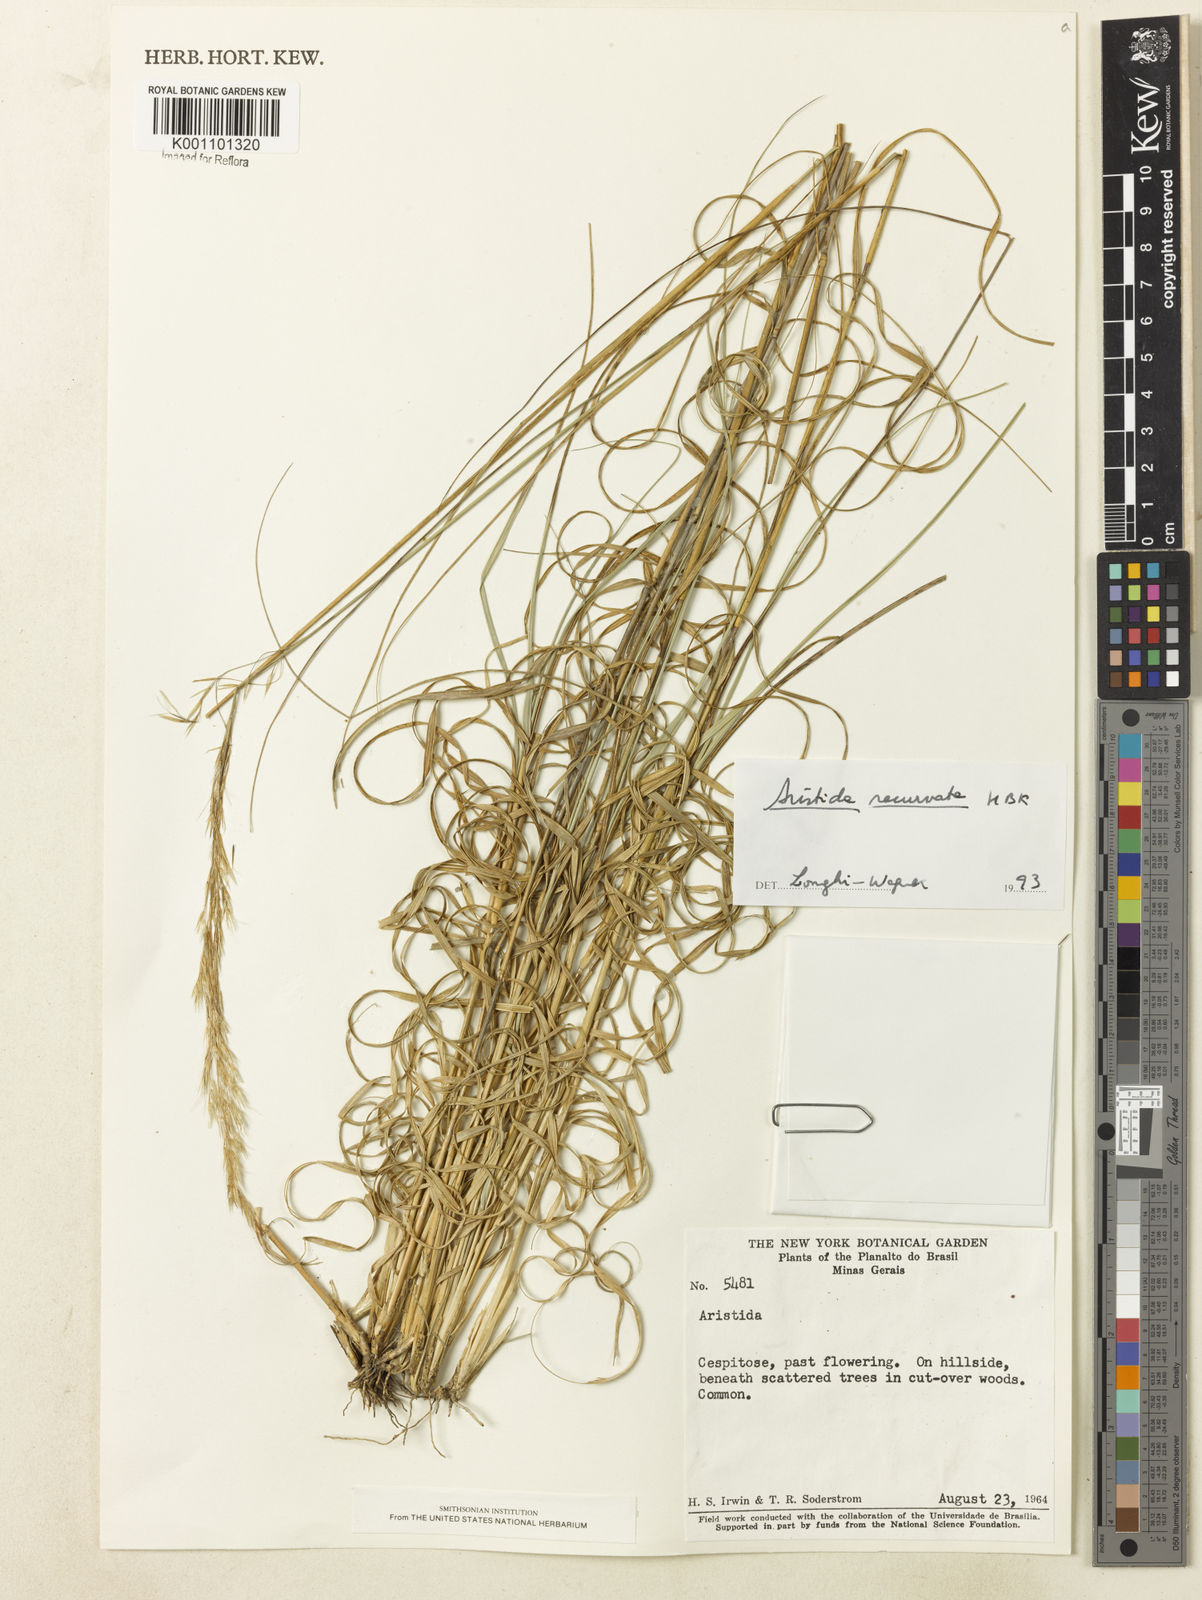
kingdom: Plantae
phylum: Tracheophyta
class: Liliopsida
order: Poales
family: Poaceae
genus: Aristida
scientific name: Aristida recurvata
